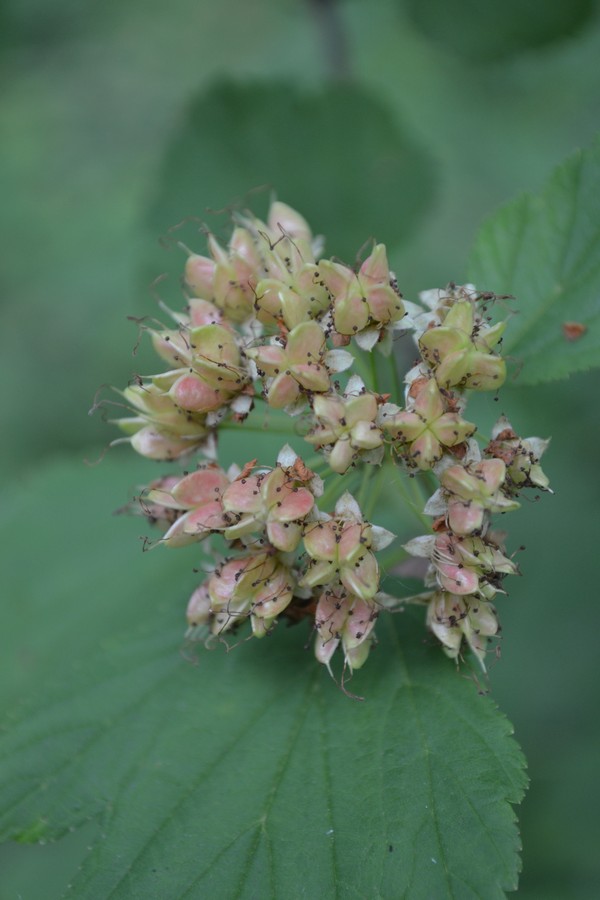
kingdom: Plantae
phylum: Tracheophyta
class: Magnoliopsida
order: Rosales
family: Rosaceae
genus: Physocarpus
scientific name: Physocarpus opulifolius
